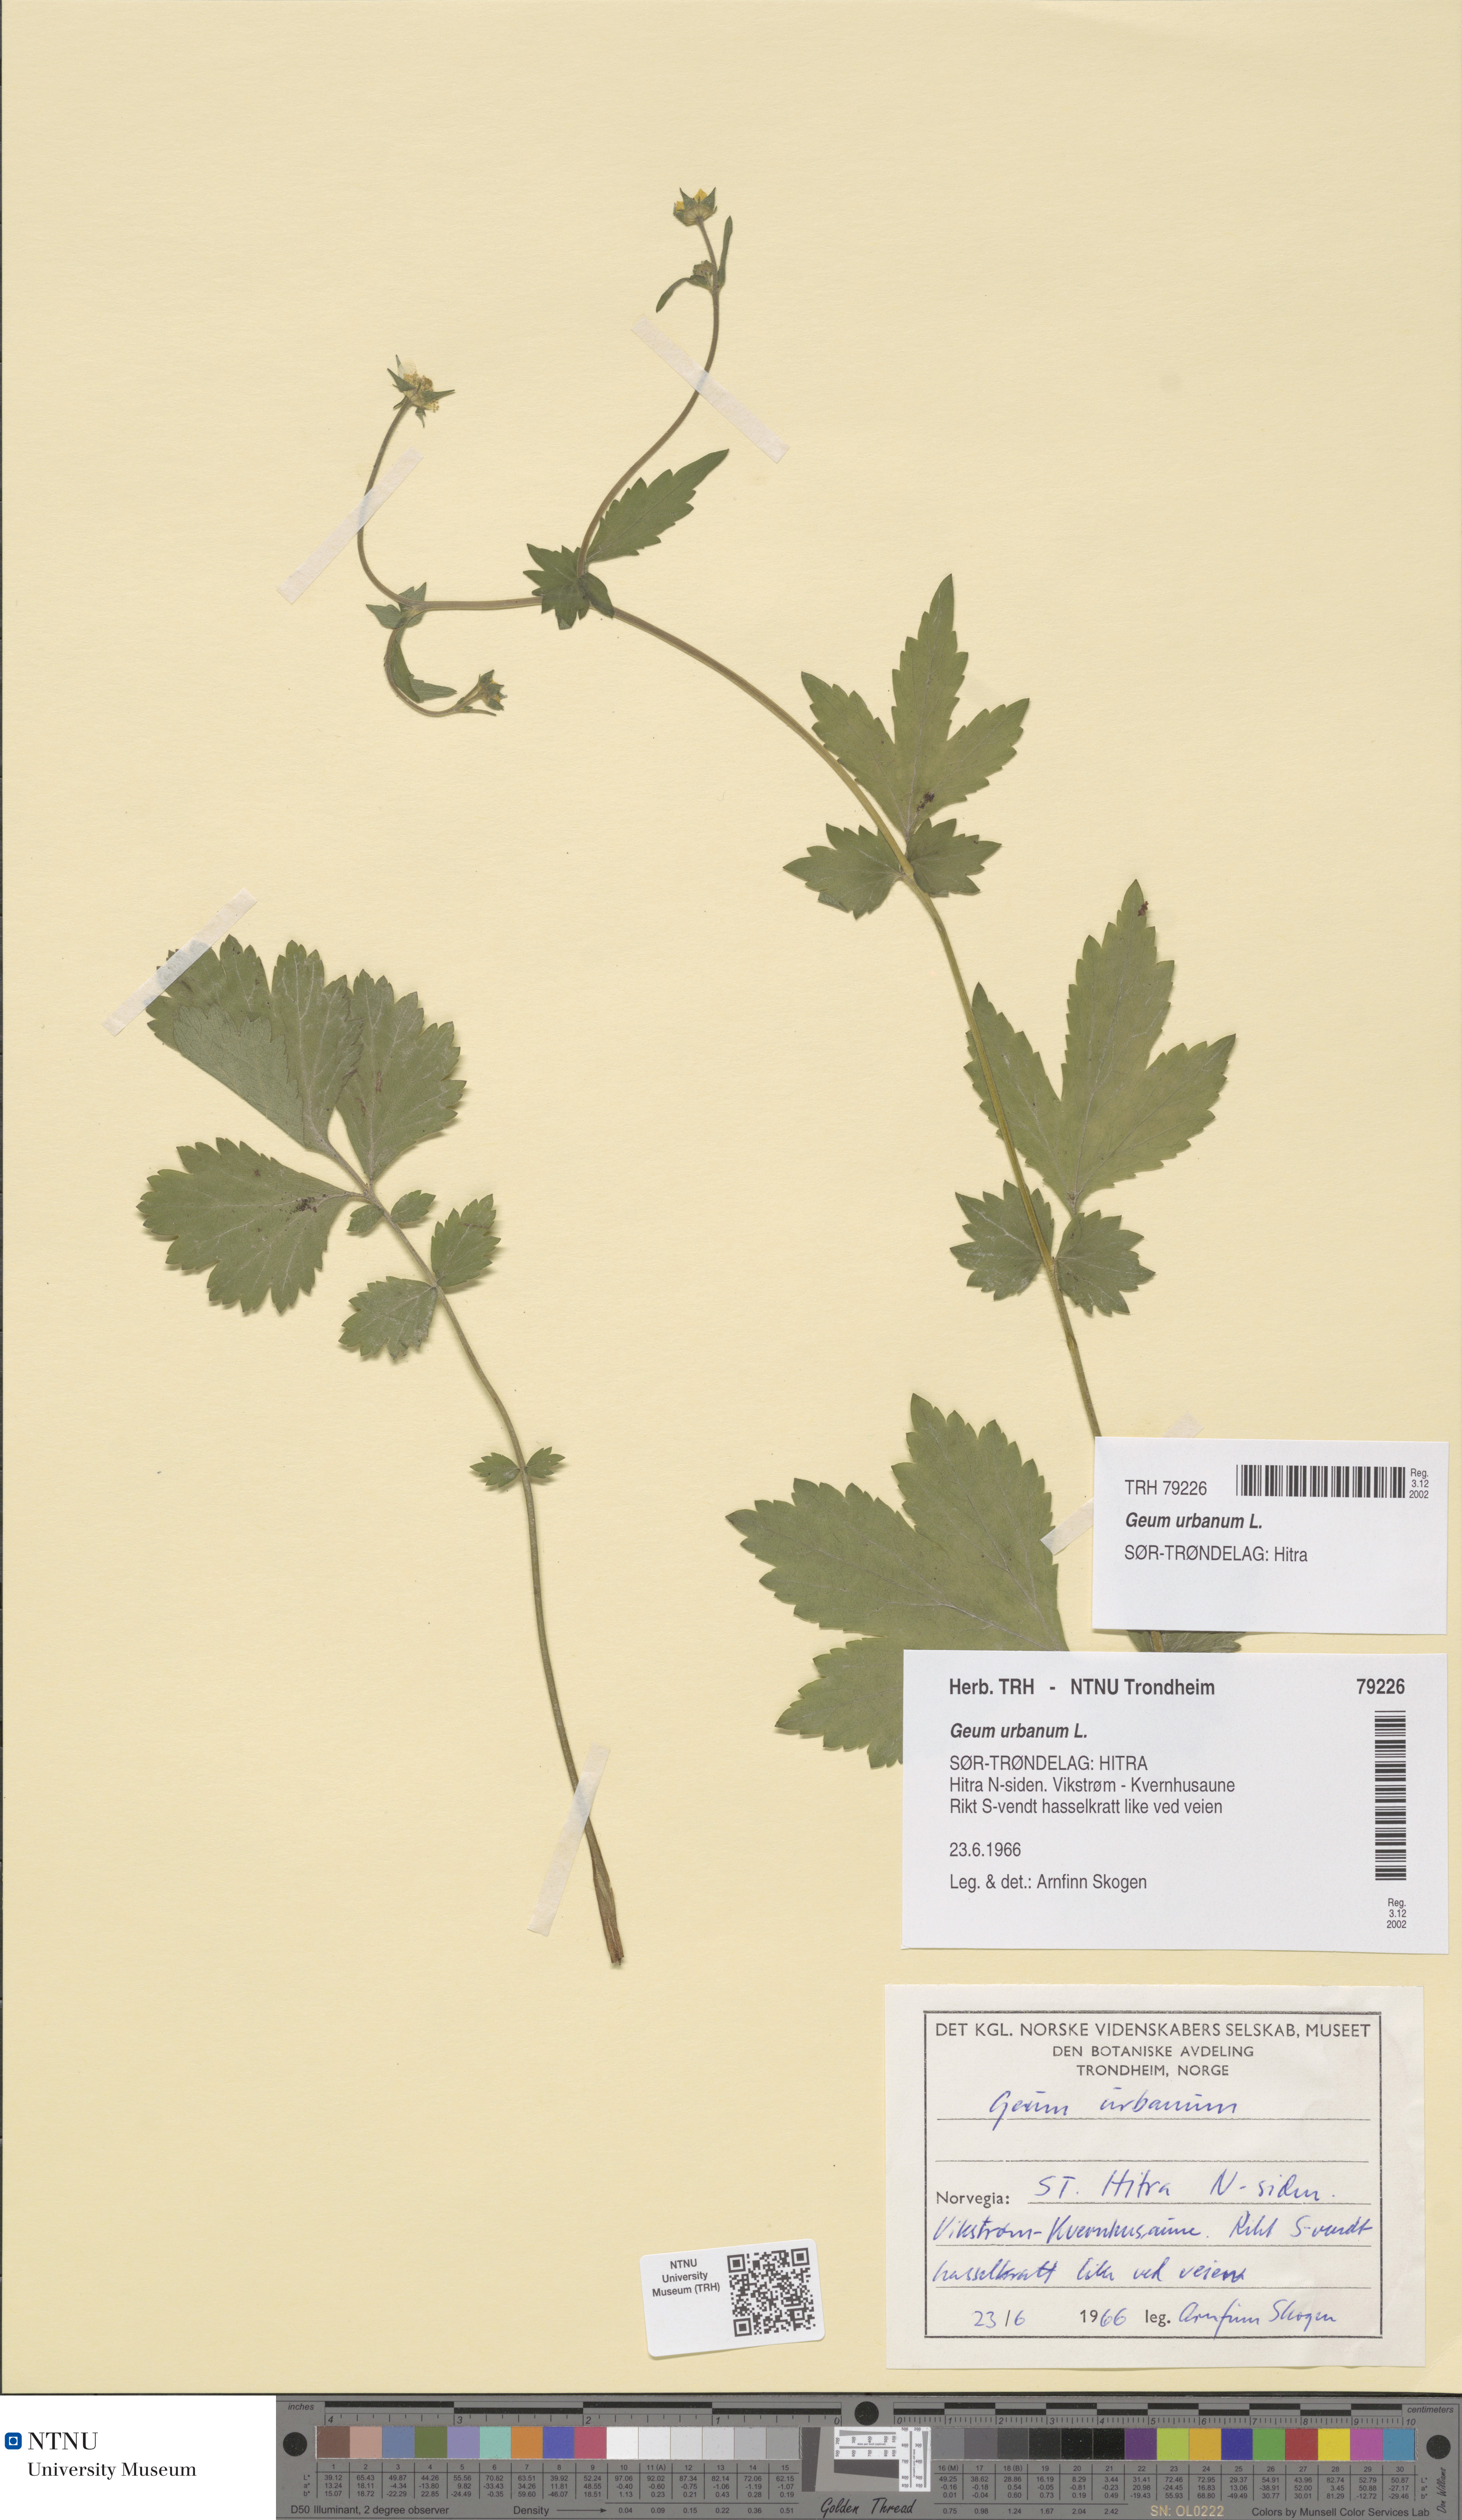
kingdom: Plantae
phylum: Tracheophyta
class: Magnoliopsida
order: Rosales
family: Rosaceae
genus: Geum
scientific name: Geum urbanum
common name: Wood avens
